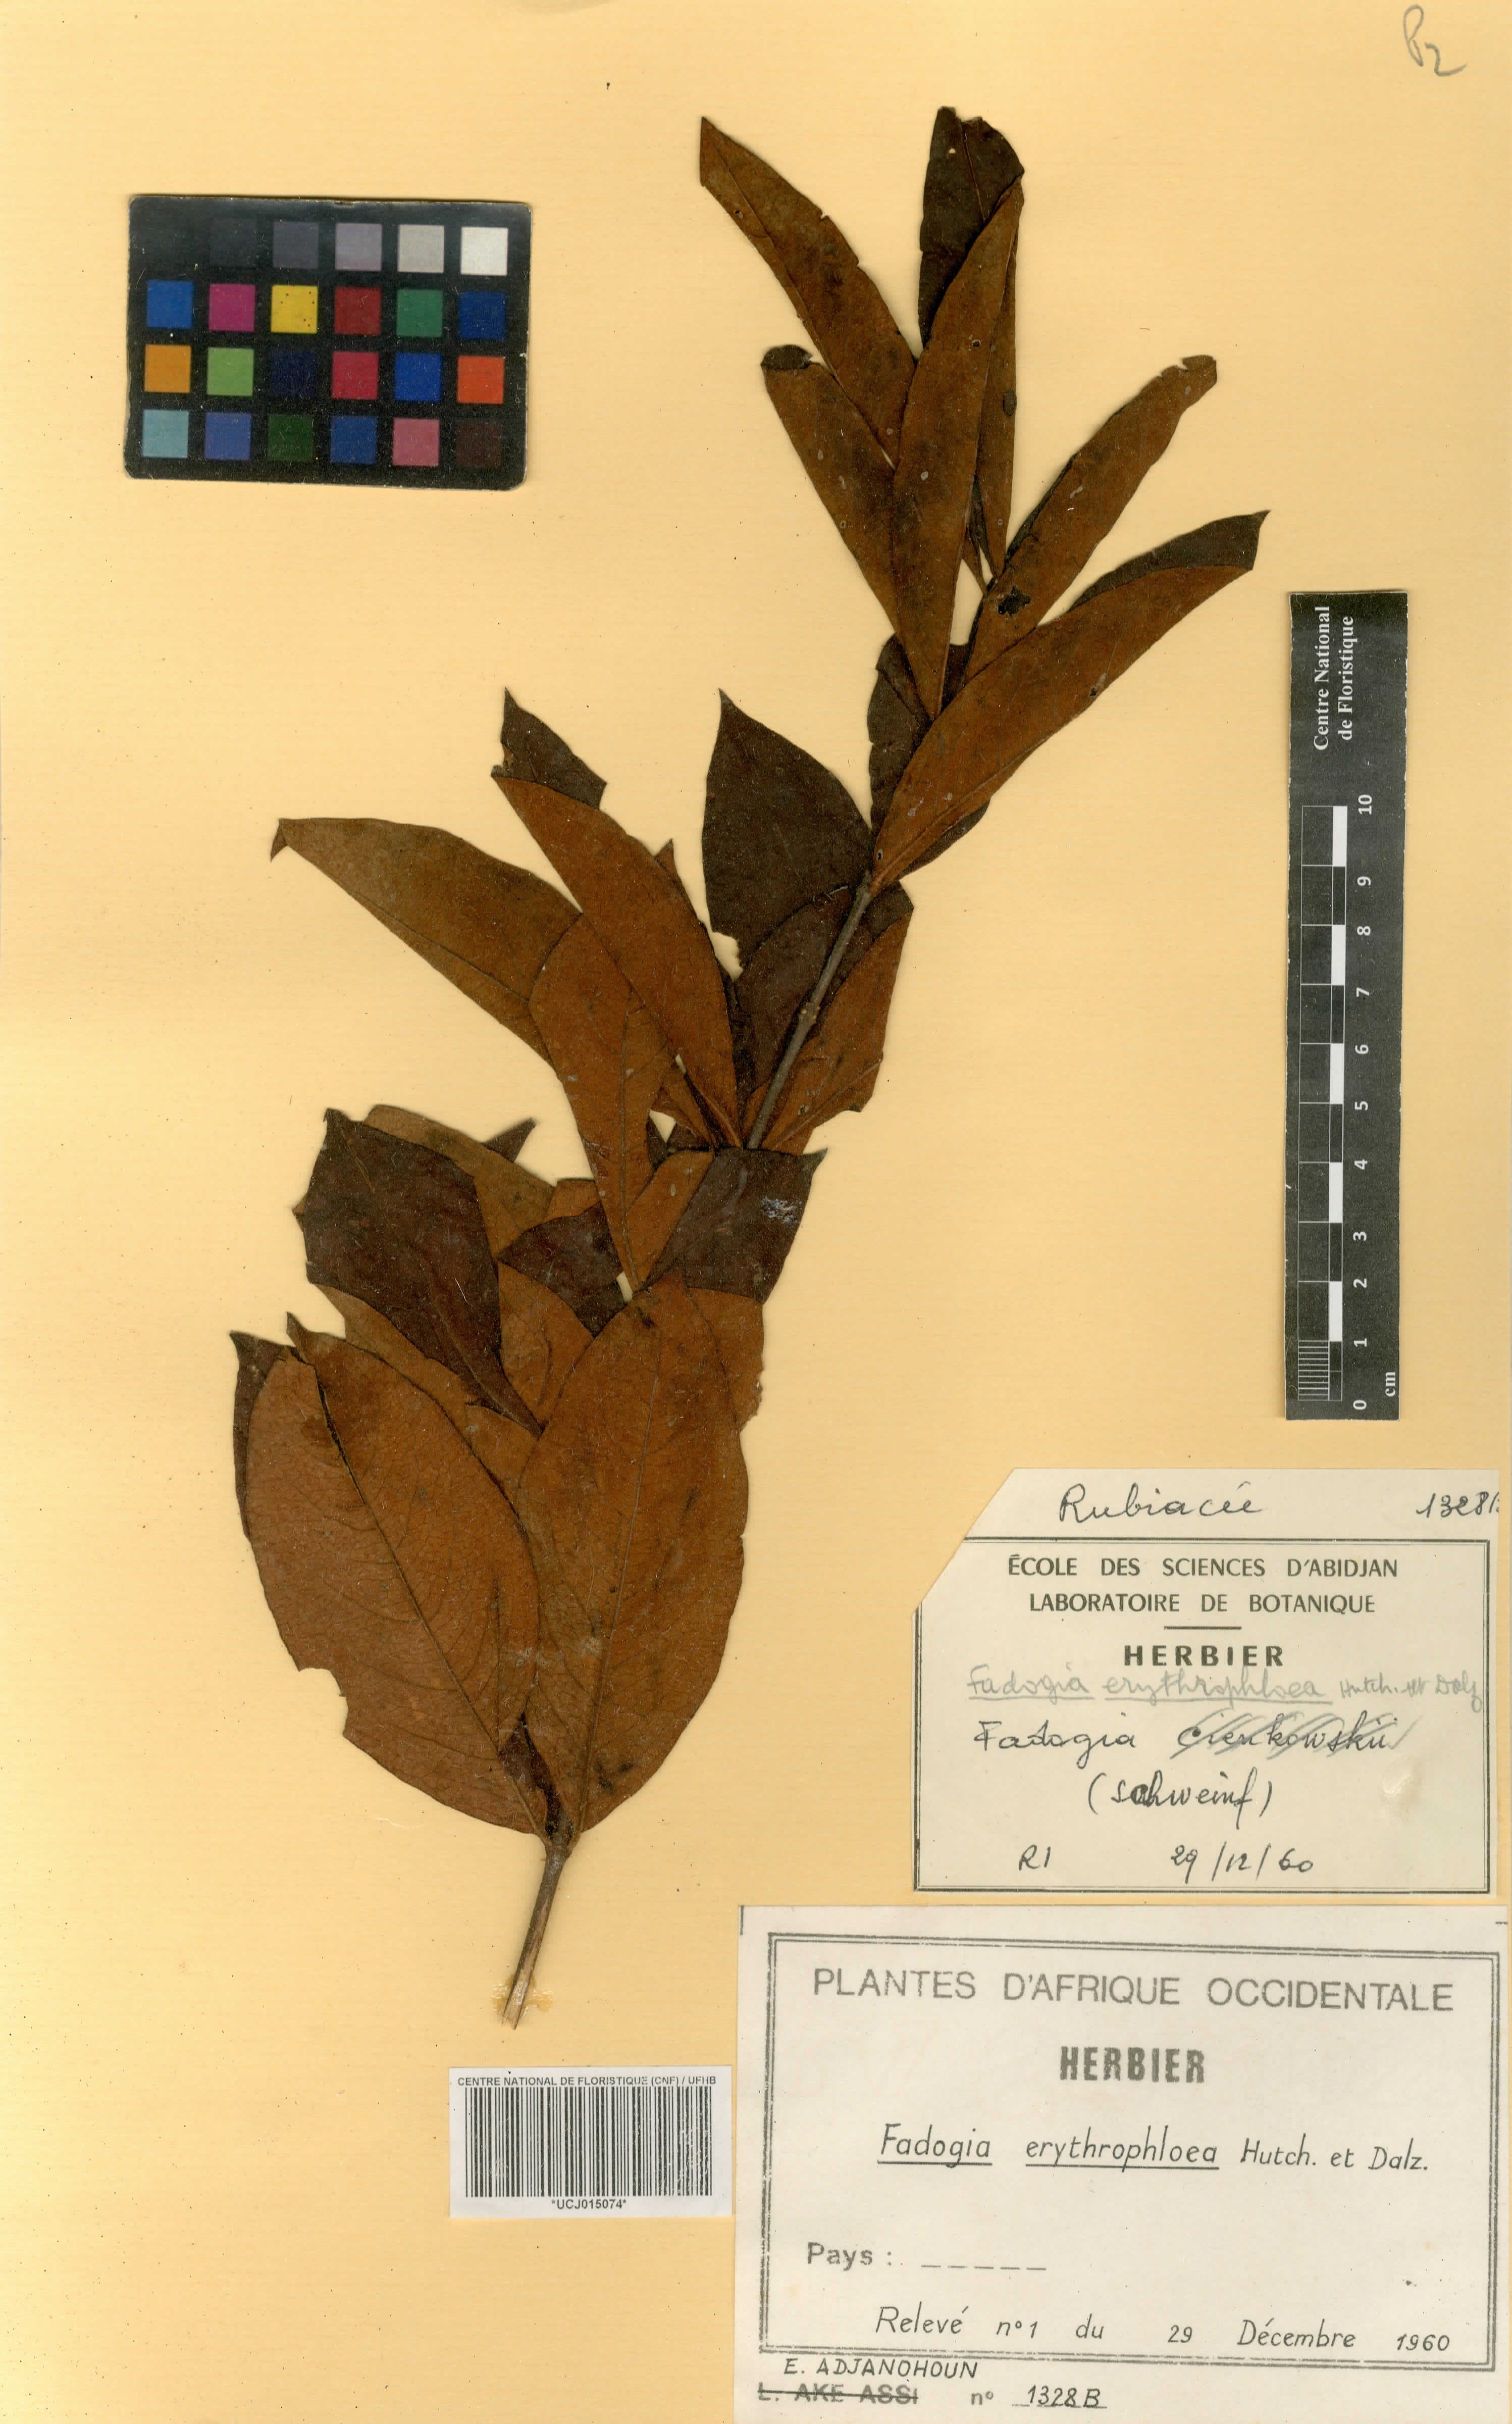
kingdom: Plantae
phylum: Tracheophyta
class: Magnoliopsida
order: Gentianales
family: Rubiaceae
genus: Fadogia
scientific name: Fadogia erythrophloea
